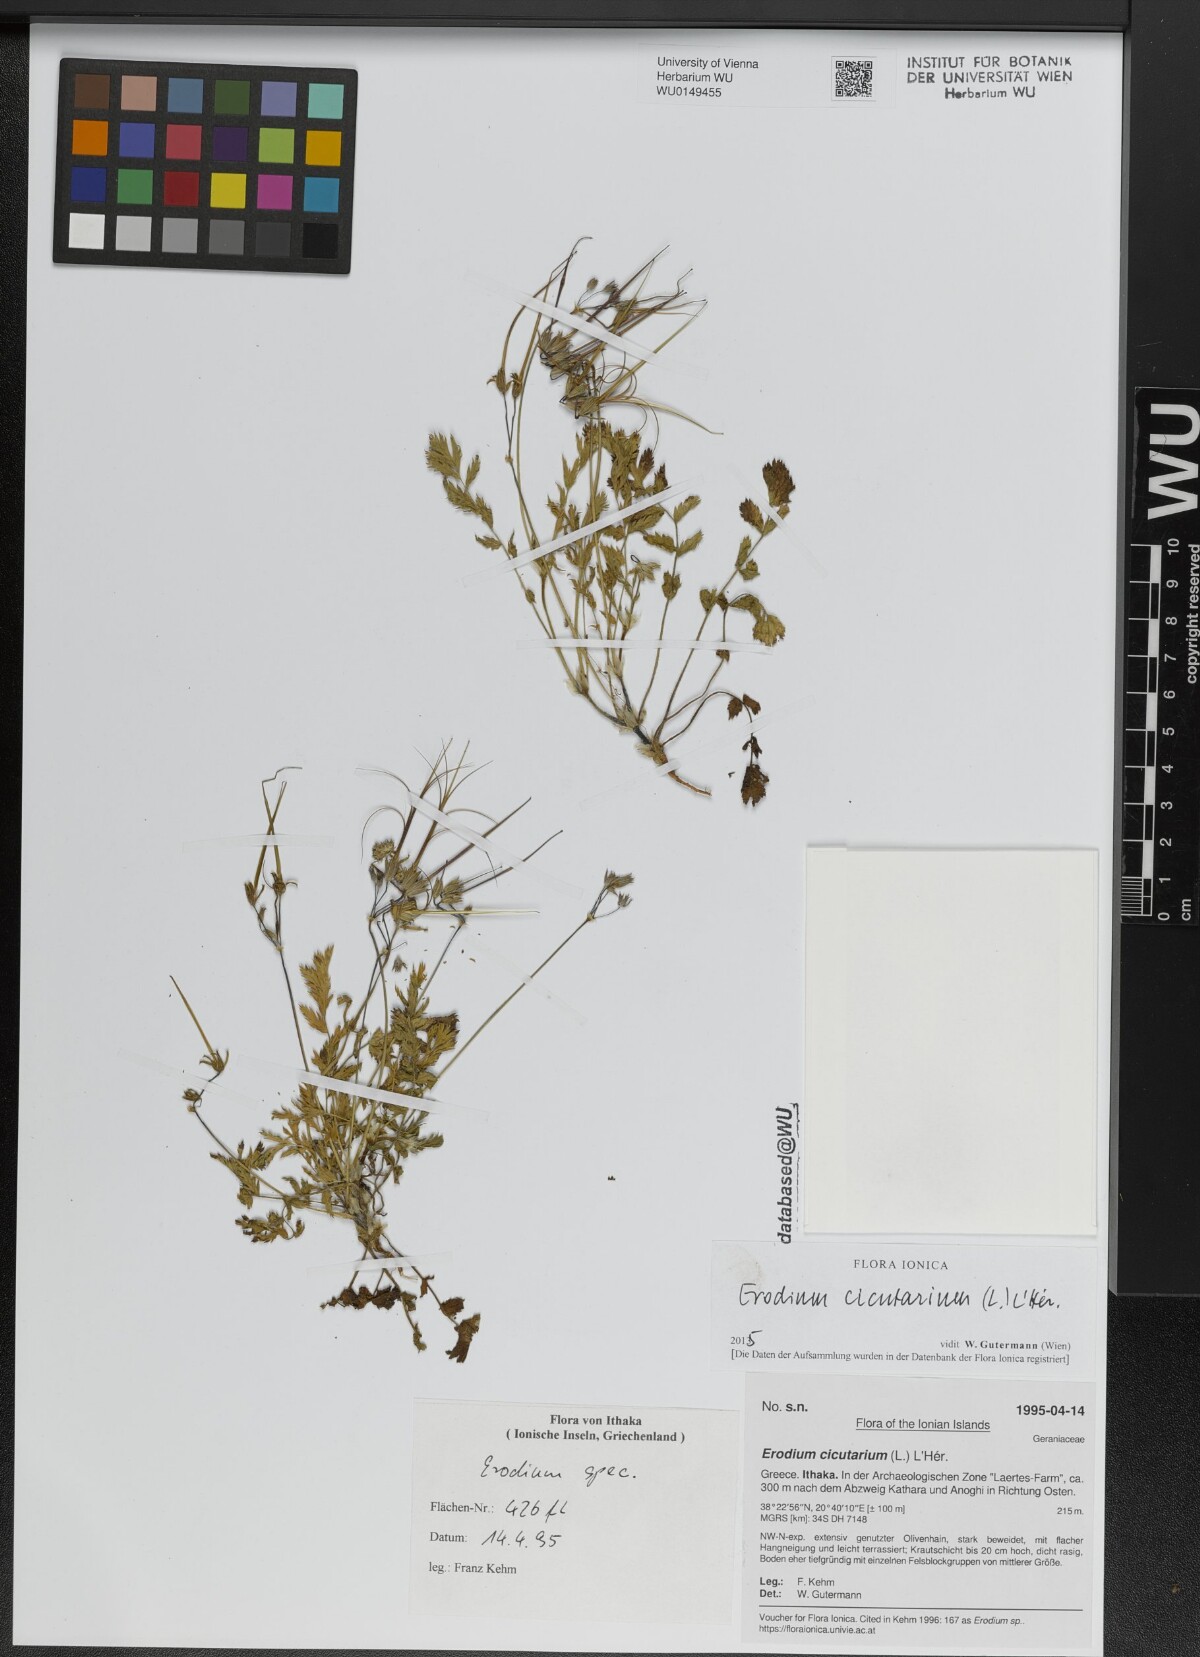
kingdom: Plantae
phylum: Tracheophyta
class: Magnoliopsida
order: Geraniales
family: Geraniaceae
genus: Erodium
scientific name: Erodium cicutarium
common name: Common stork's-bill
